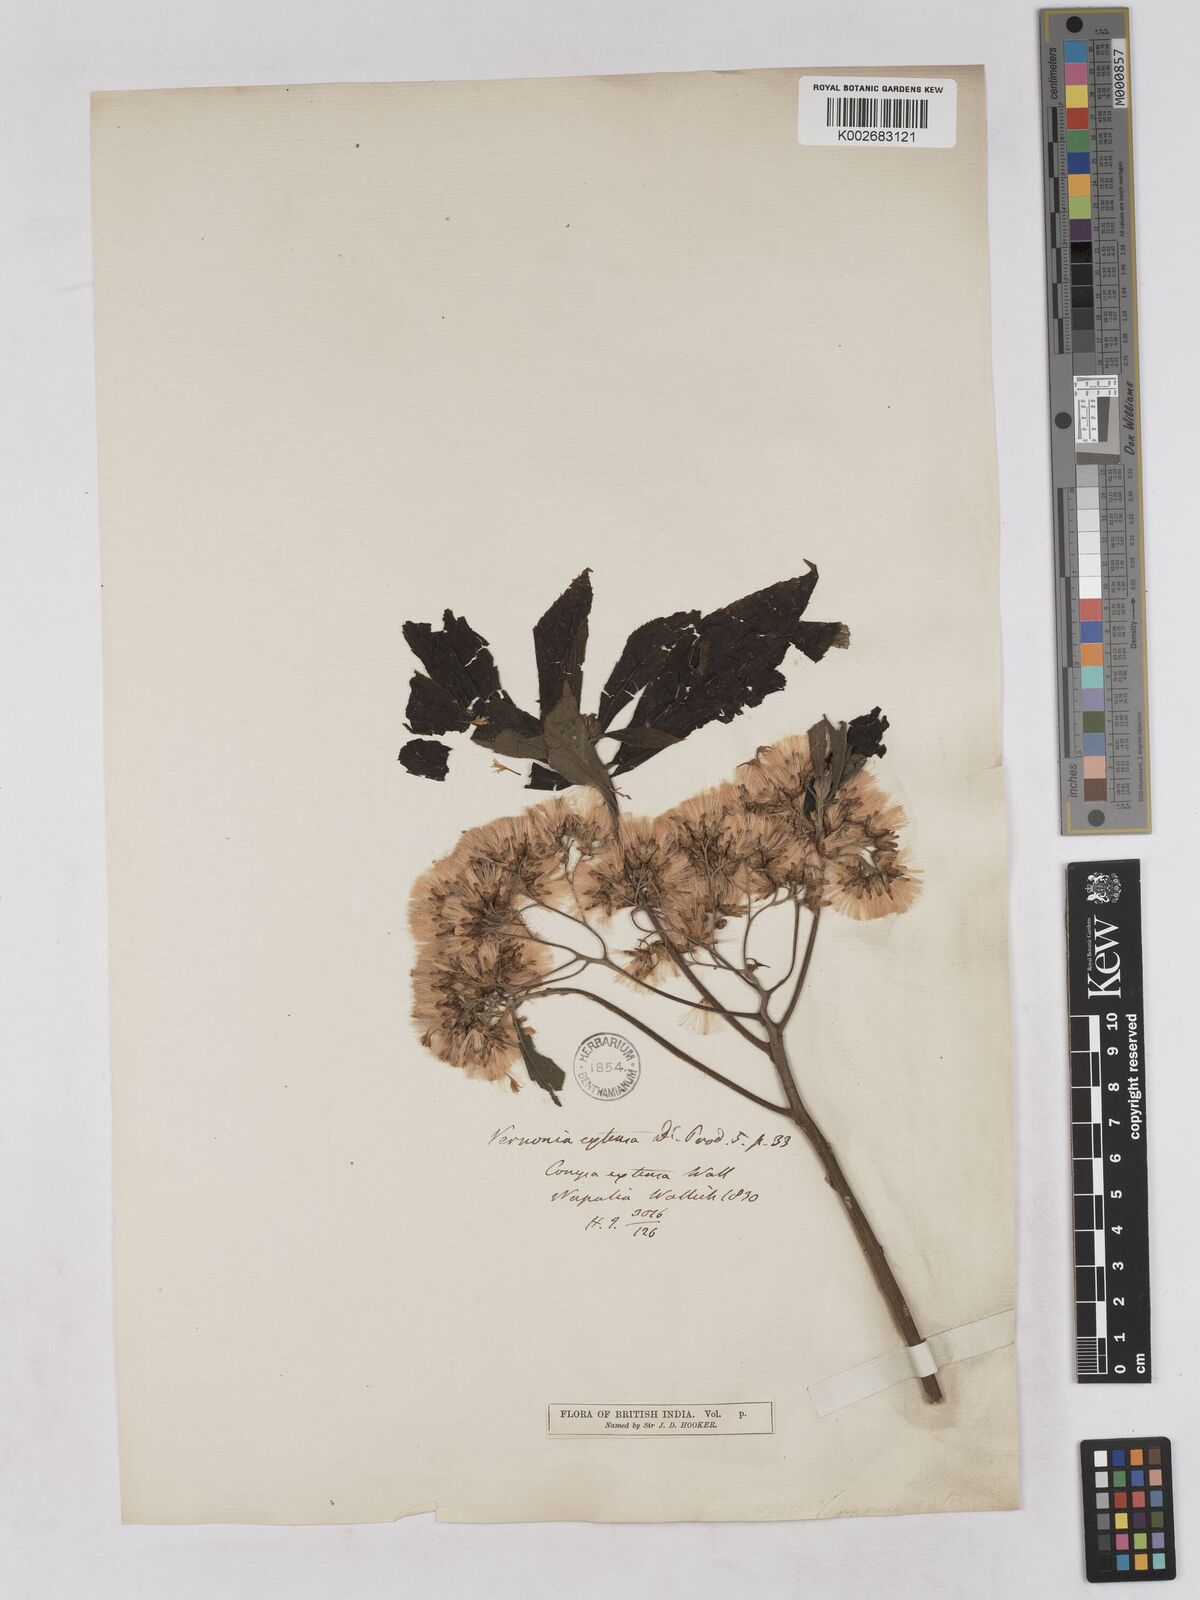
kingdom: Plantae
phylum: Tracheophyta
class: Magnoliopsida
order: Asterales
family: Asteraceae
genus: Gymnanthemum
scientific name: Gymnanthemum extensum
